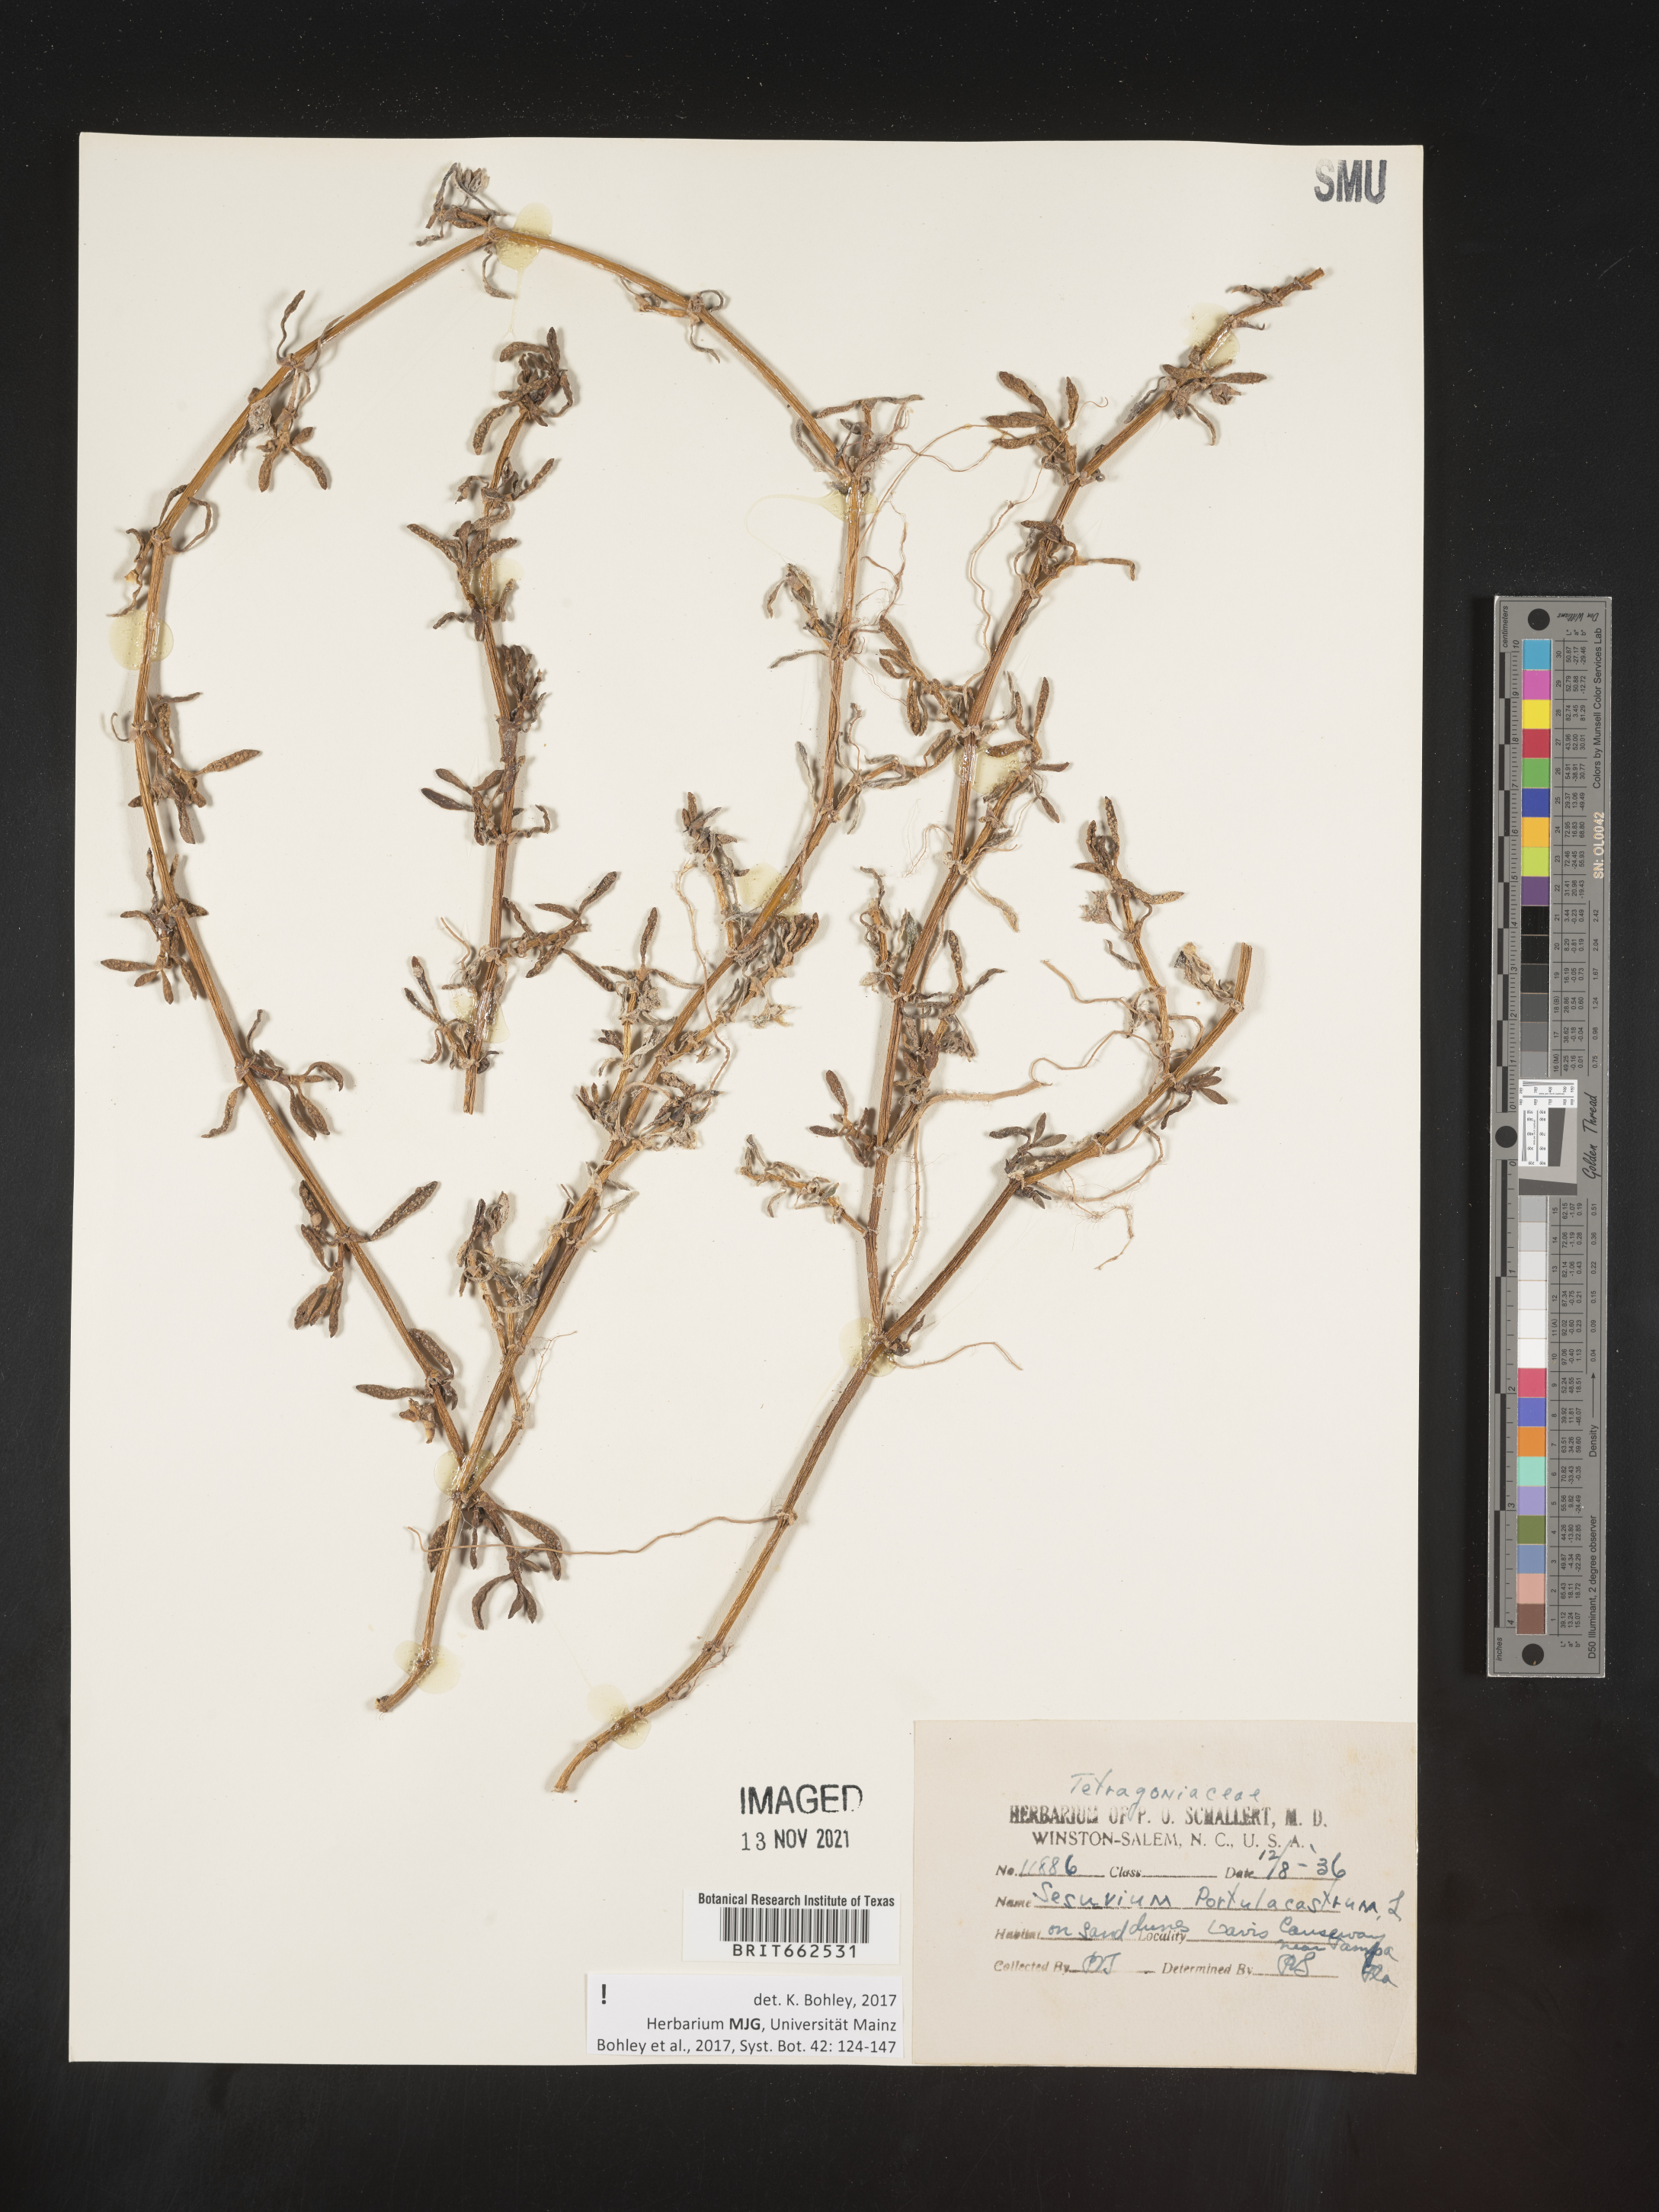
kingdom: Plantae
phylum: Tracheophyta
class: Magnoliopsida
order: Caryophyllales
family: Aizoaceae
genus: Sesuvium
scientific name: Sesuvium portulacastrum
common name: Sea-purslane
